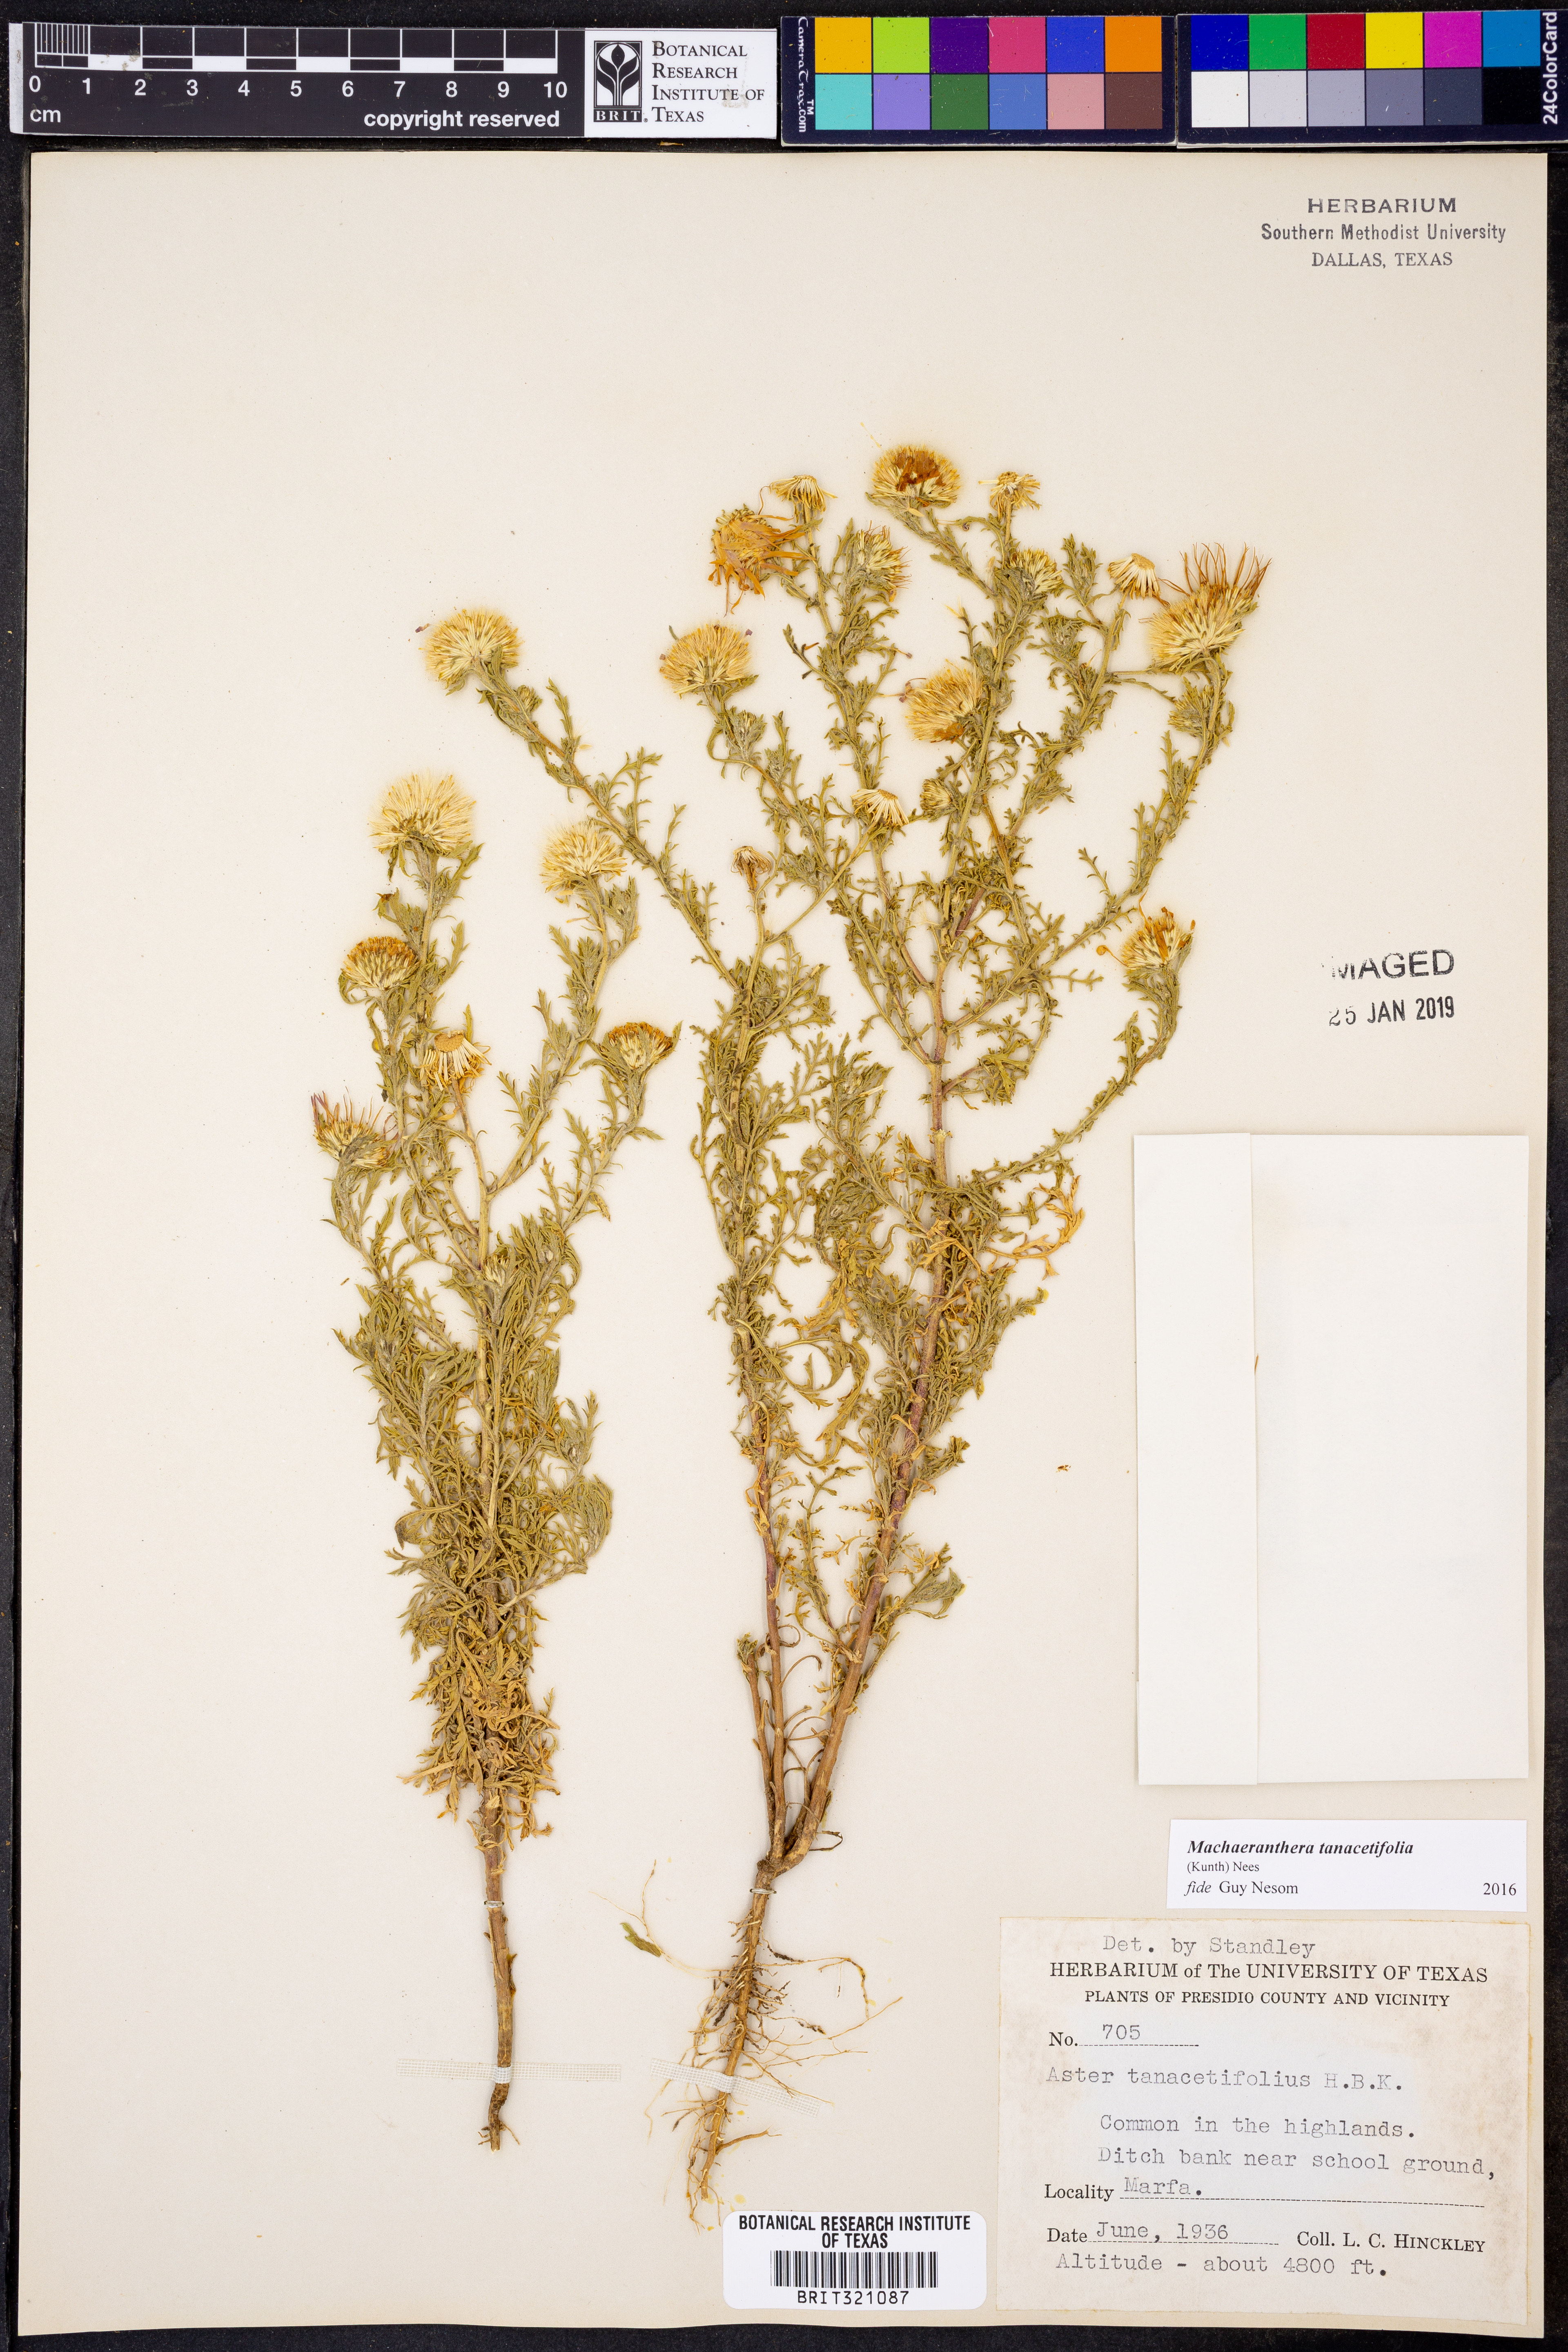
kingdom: Plantae
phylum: Tracheophyta
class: Magnoliopsida
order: Asterales
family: Asteraceae
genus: Machaeranthera
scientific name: Machaeranthera tanacetifolia
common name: Tansy-aster
